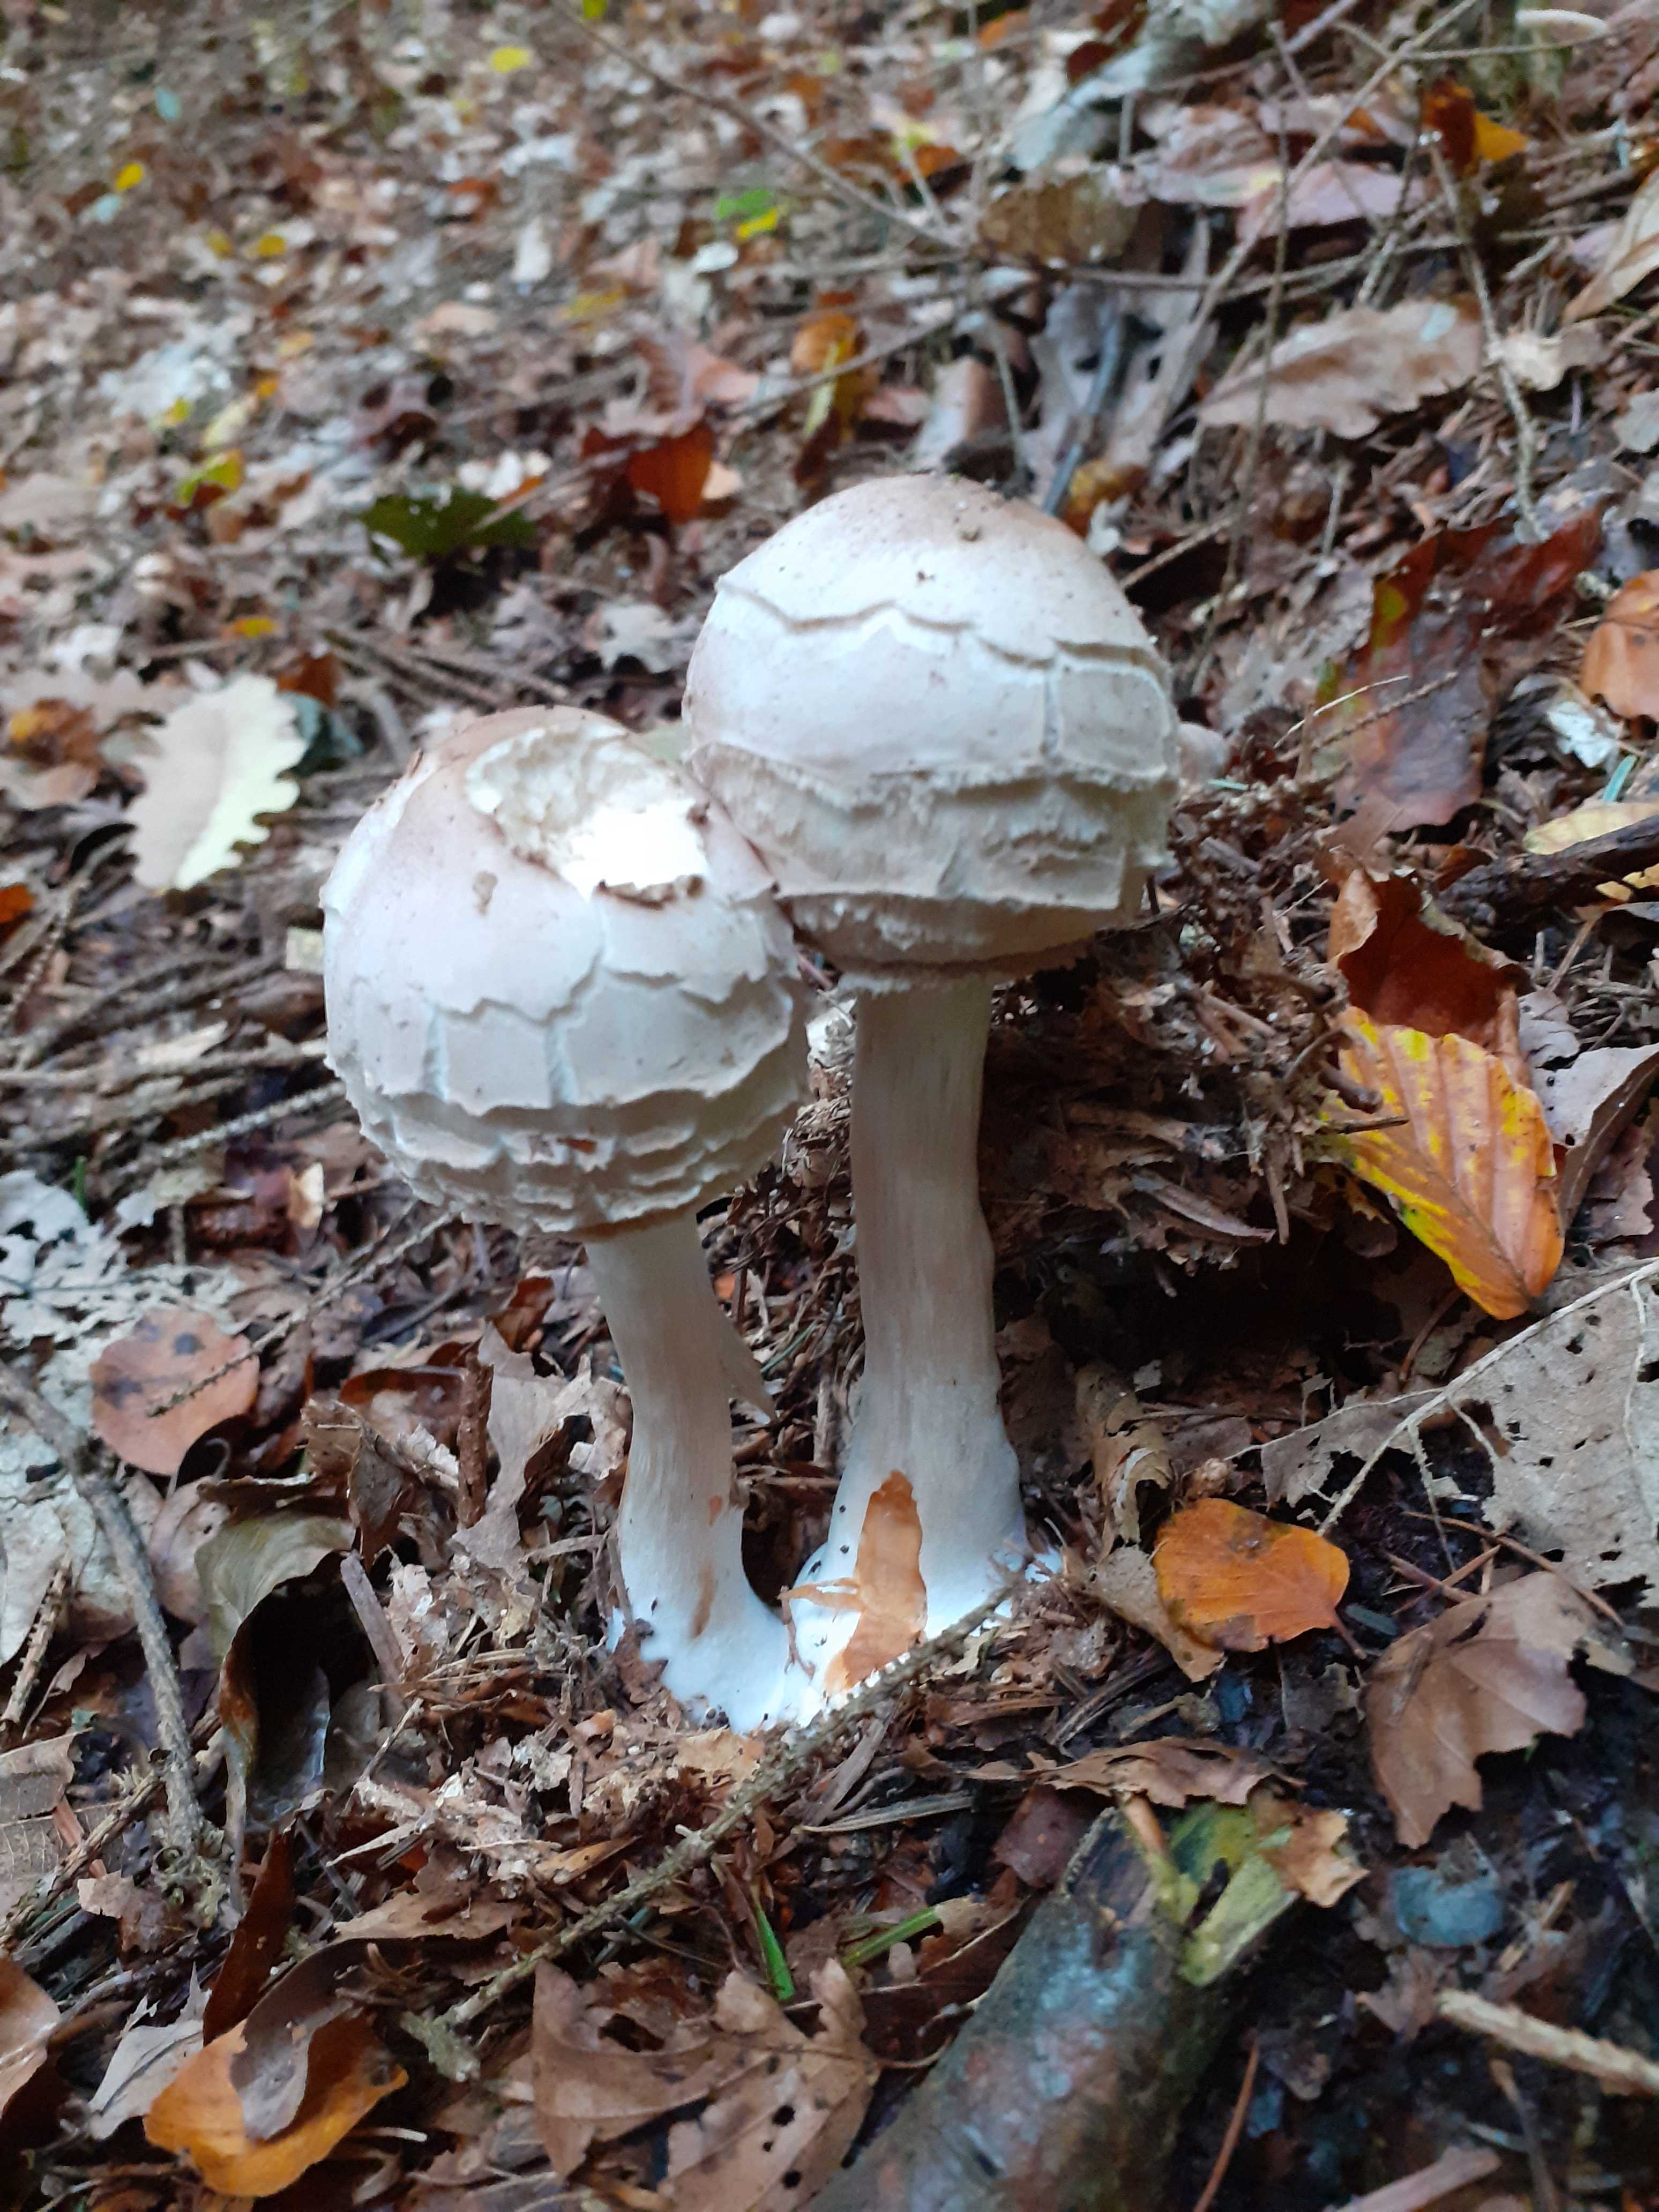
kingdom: Fungi
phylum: Basidiomycota
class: Agaricomycetes
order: Agaricales
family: Agaricaceae
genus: Chlorophyllum
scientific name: Chlorophyllum olivieri
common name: almindelig rabarberhat
